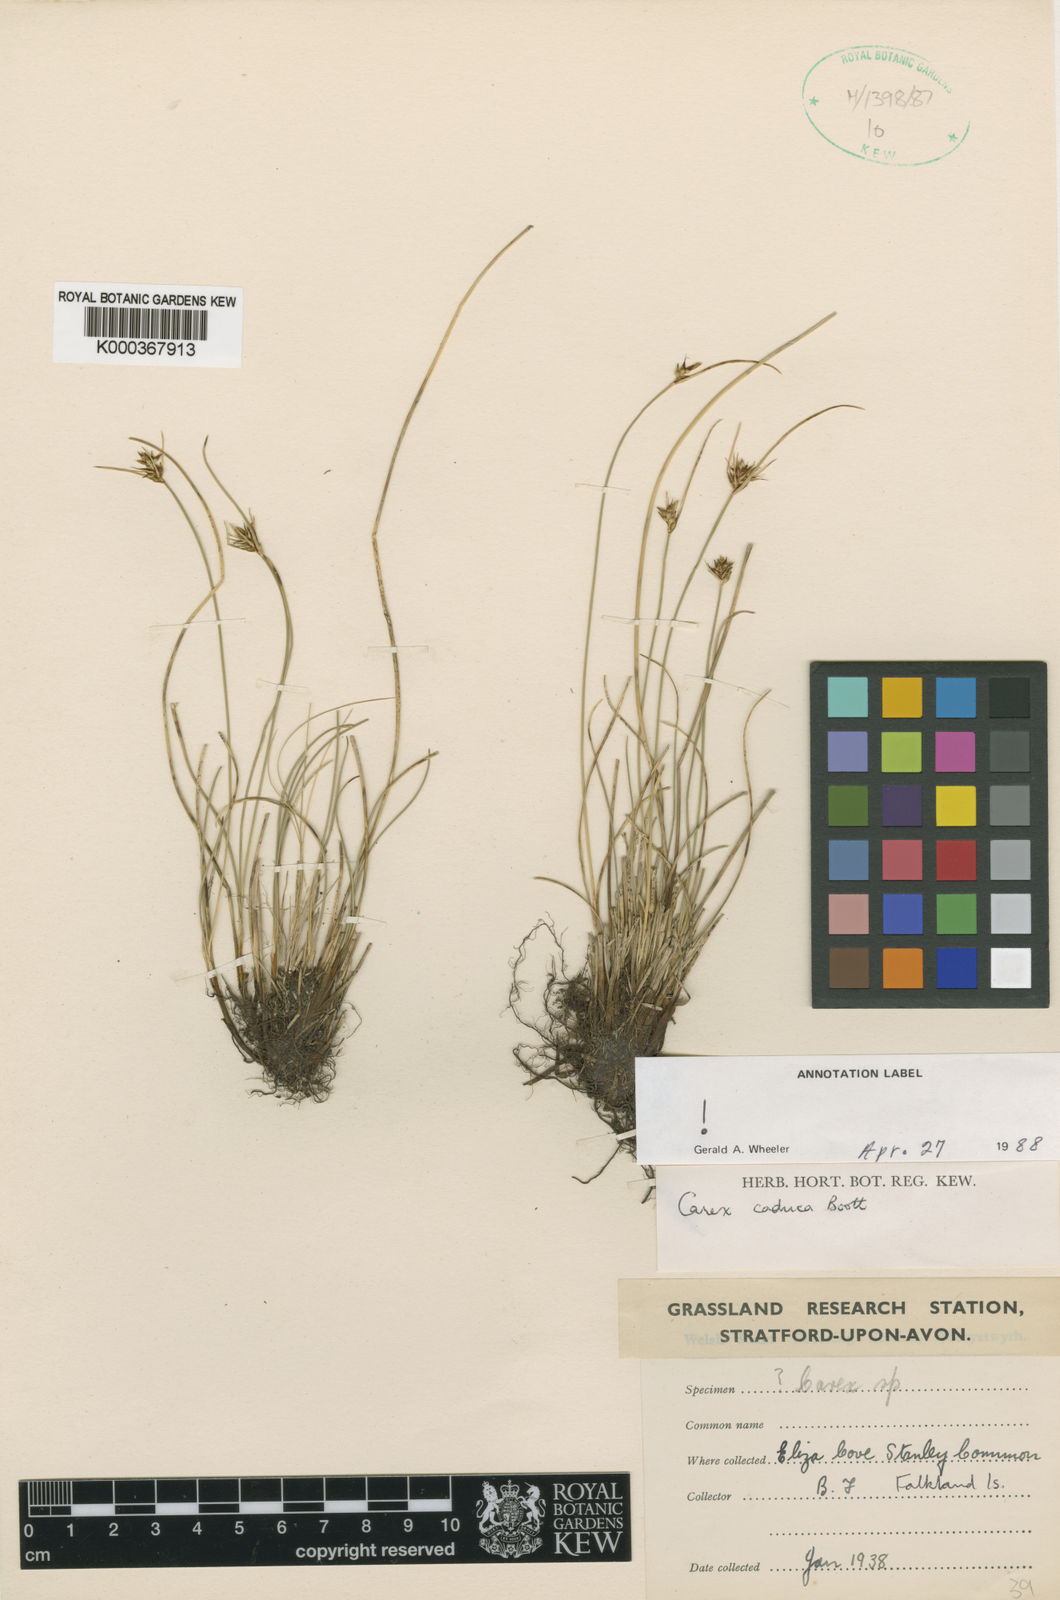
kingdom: Plantae
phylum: Tracheophyta
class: Liliopsida
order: Poales
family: Cyperaceae
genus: Carex
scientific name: Carex caduca
